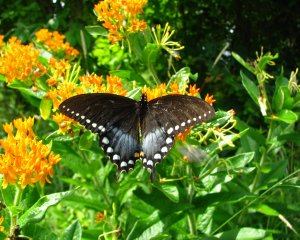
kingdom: Animalia
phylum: Arthropoda
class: Insecta
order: Lepidoptera
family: Papilionidae
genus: Pterourus
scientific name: Pterourus troilus
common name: Spicebush Swallowtail
